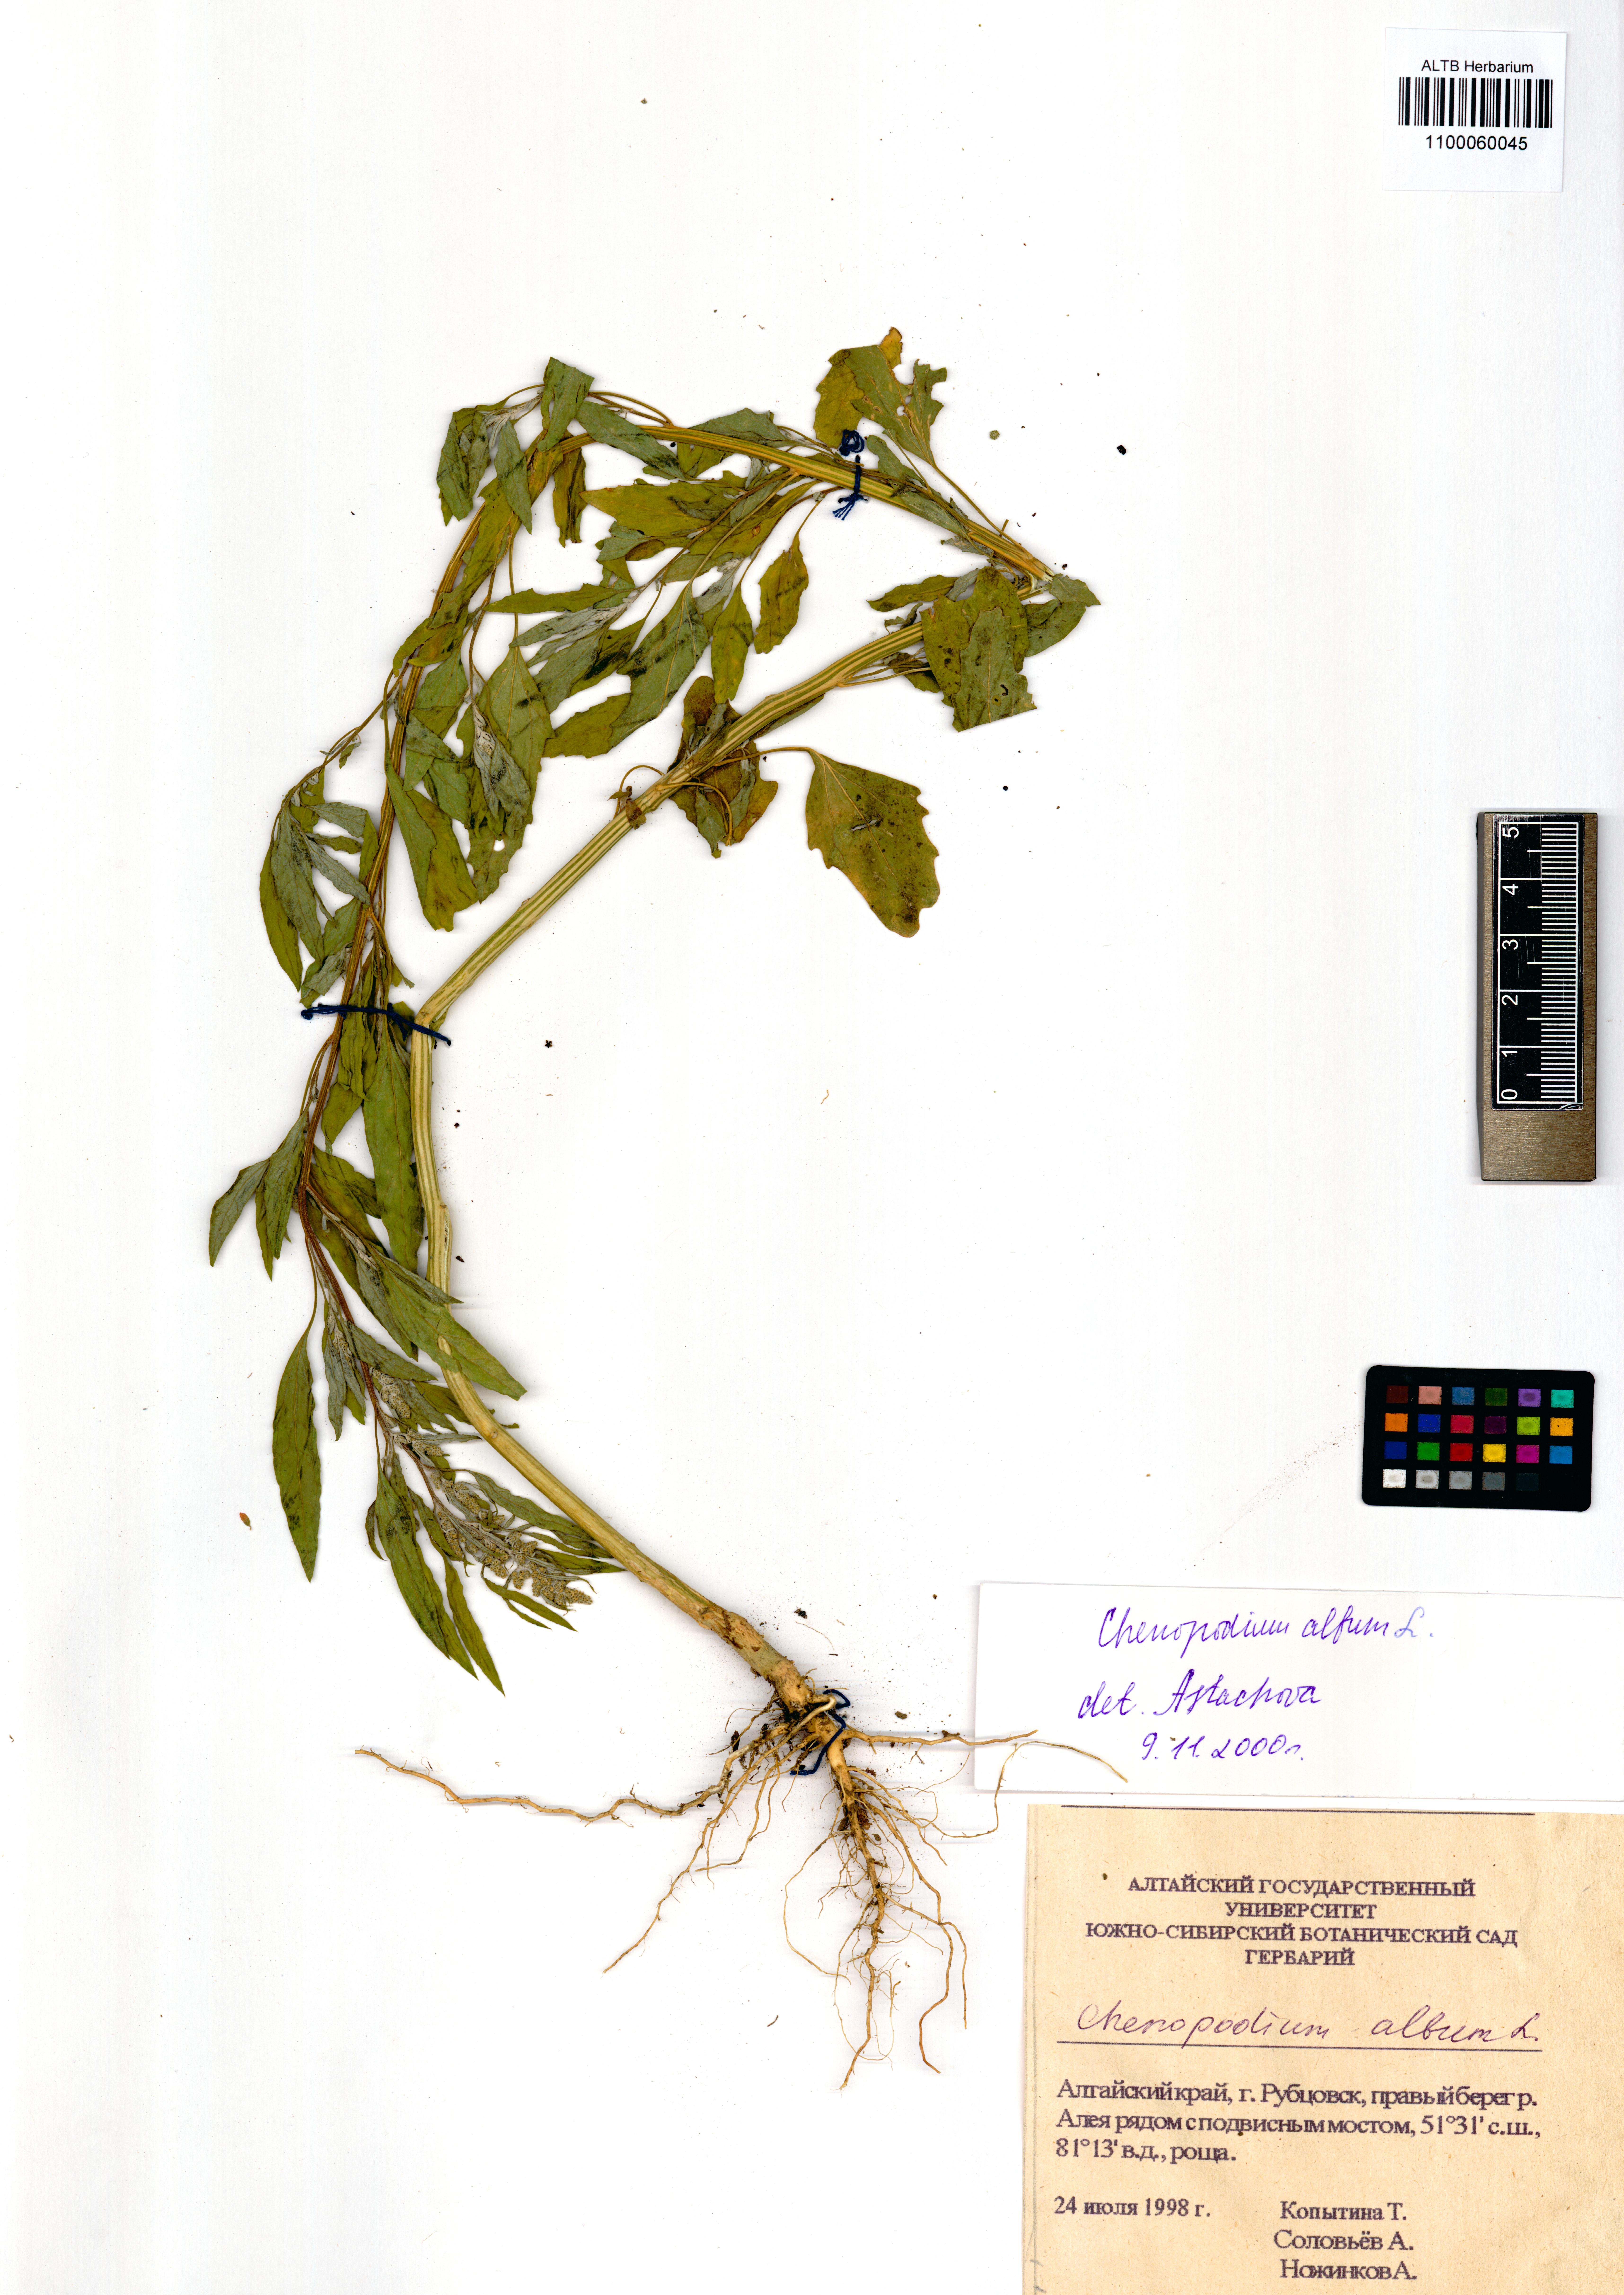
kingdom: Plantae
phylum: Tracheophyta
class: Magnoliopsida
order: Caryophyllales
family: Amaranthaceae
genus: Chenopodium
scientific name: Chenopodium album
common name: Fat-hen
